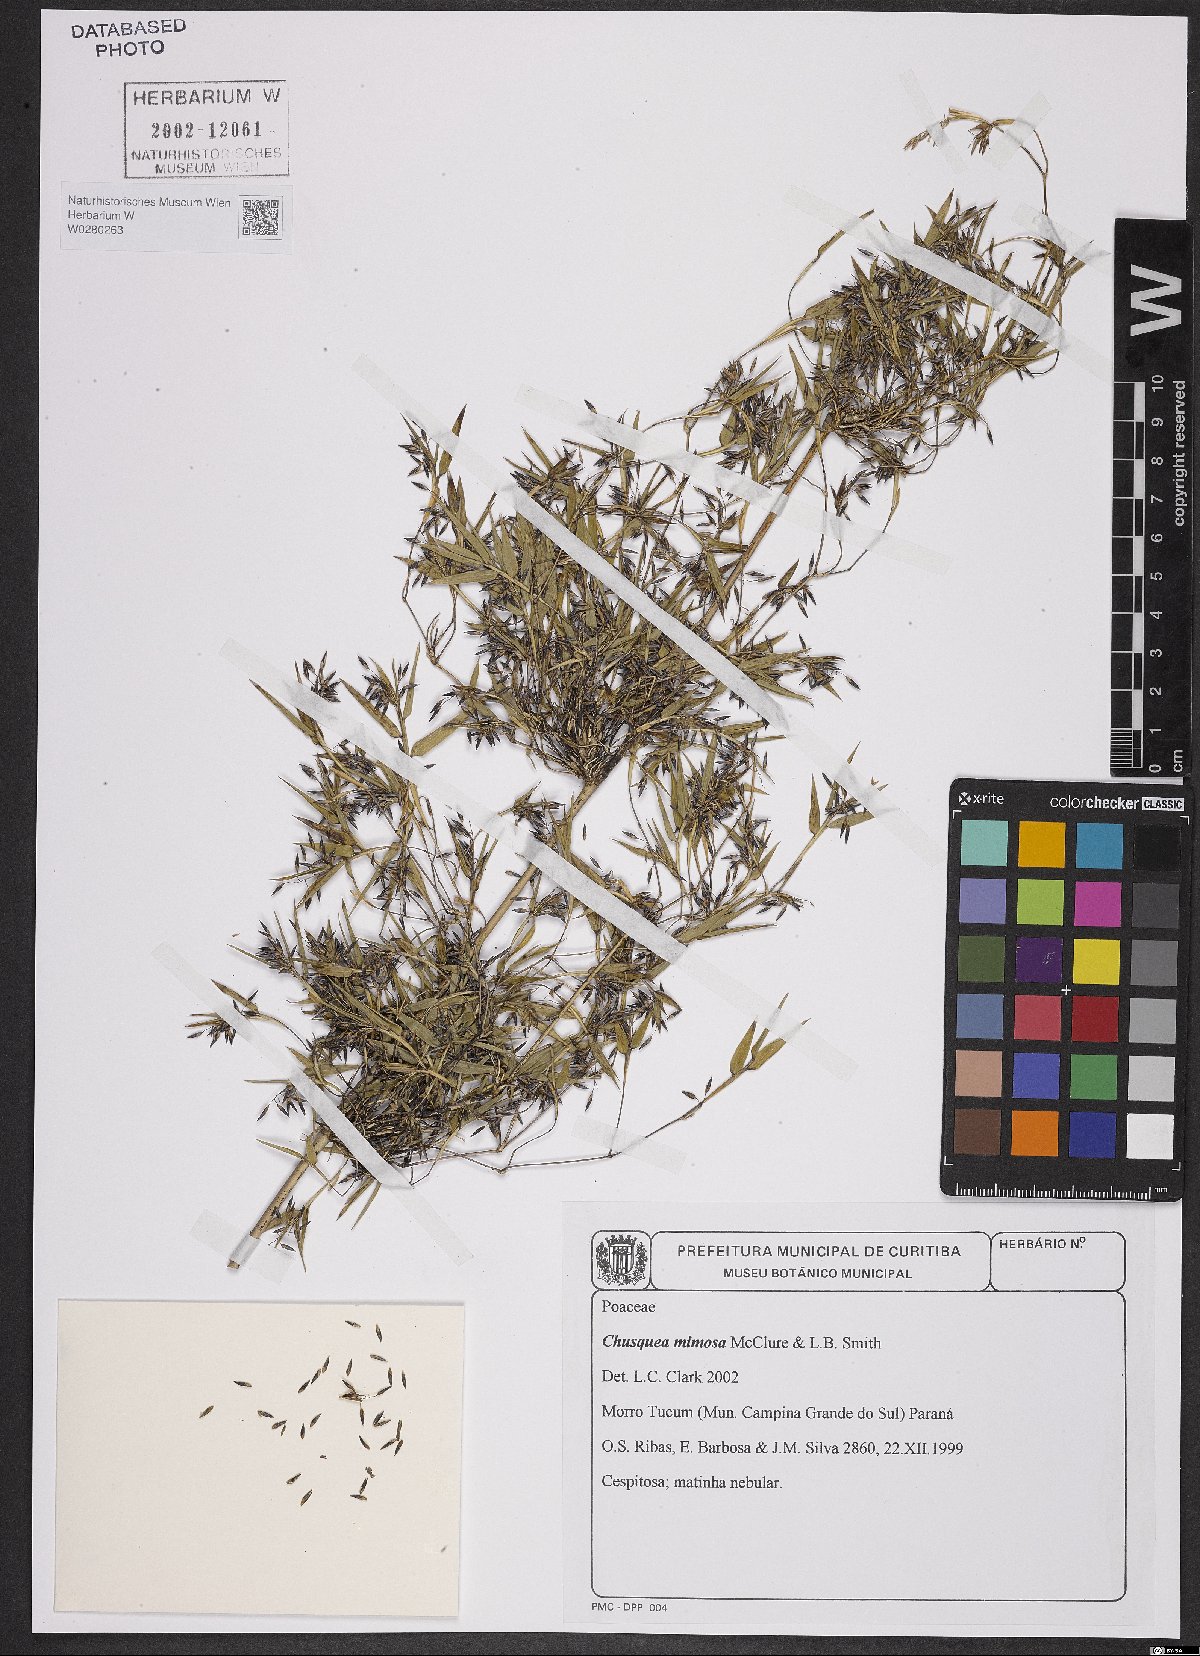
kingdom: Plantae
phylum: Tracheophyta
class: Liliopsida
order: Poales
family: Poaceae
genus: Chusquea
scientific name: Chusquea mimosa
